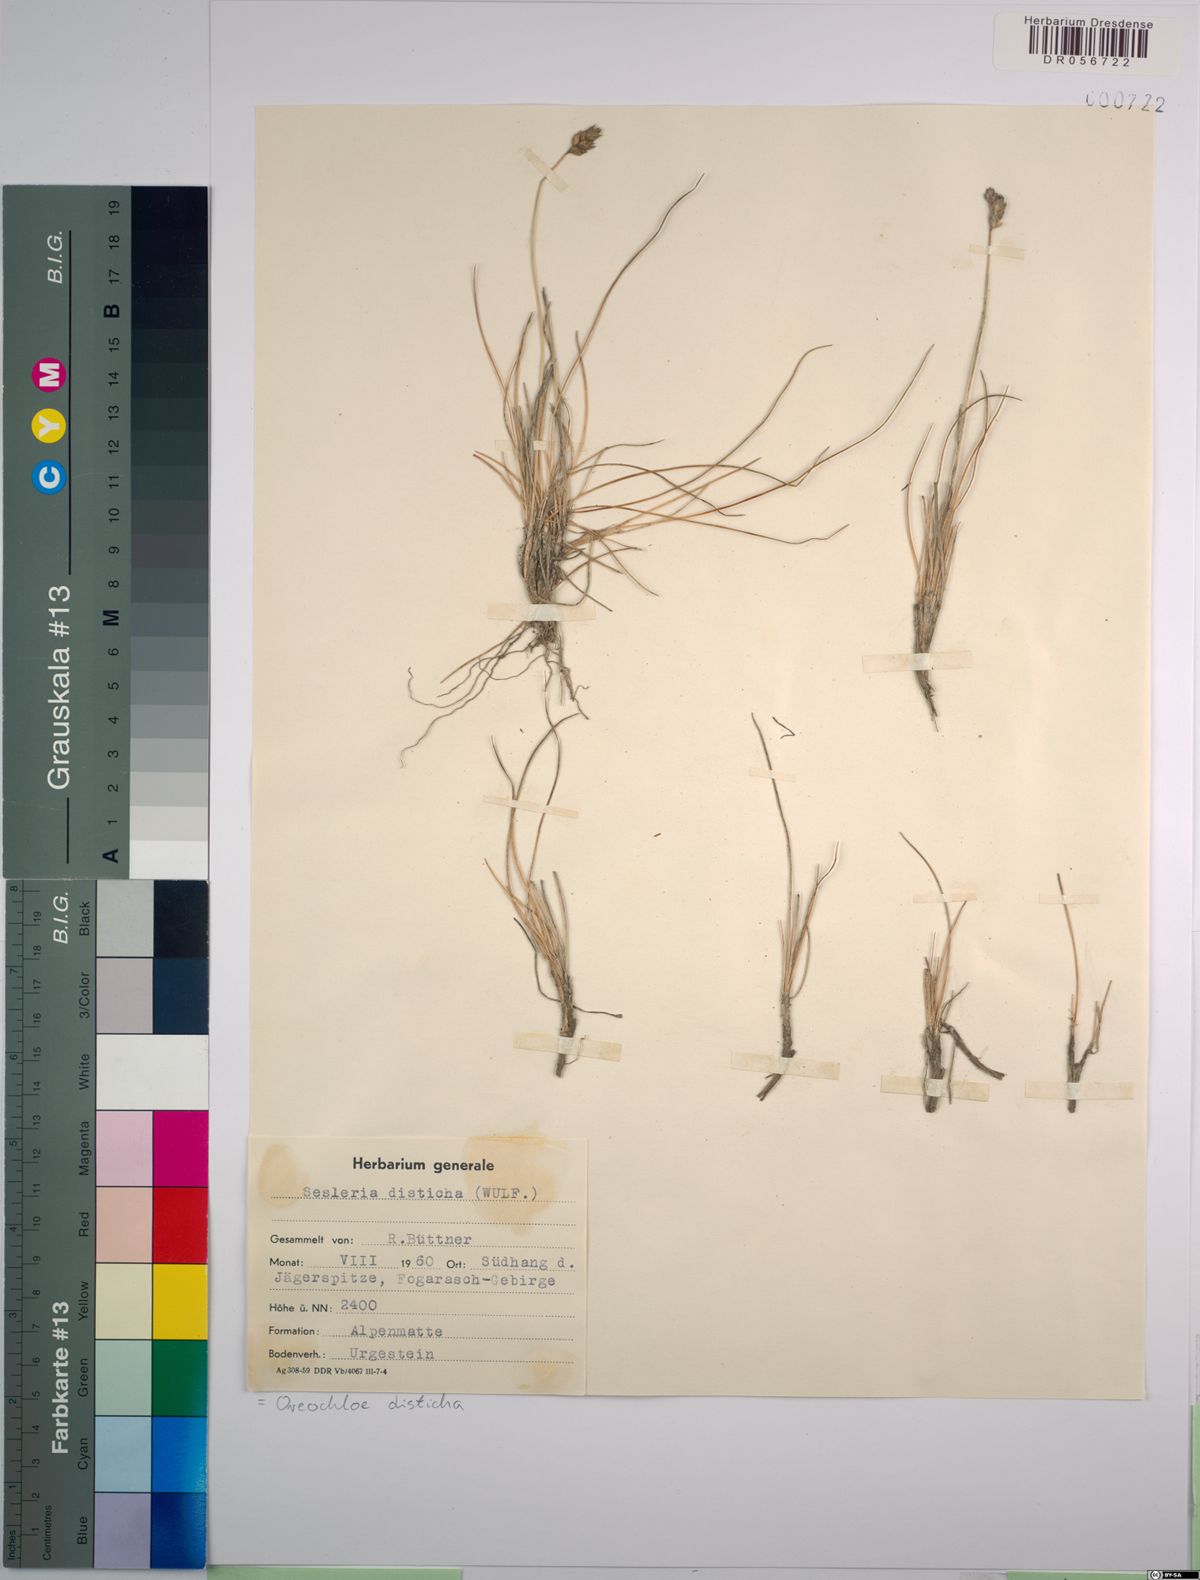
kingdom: Plantae
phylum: Tracheophyta
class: Liliopsida
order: Poales
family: Poaceae
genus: Oreochloa
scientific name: Oreochloa disticha
